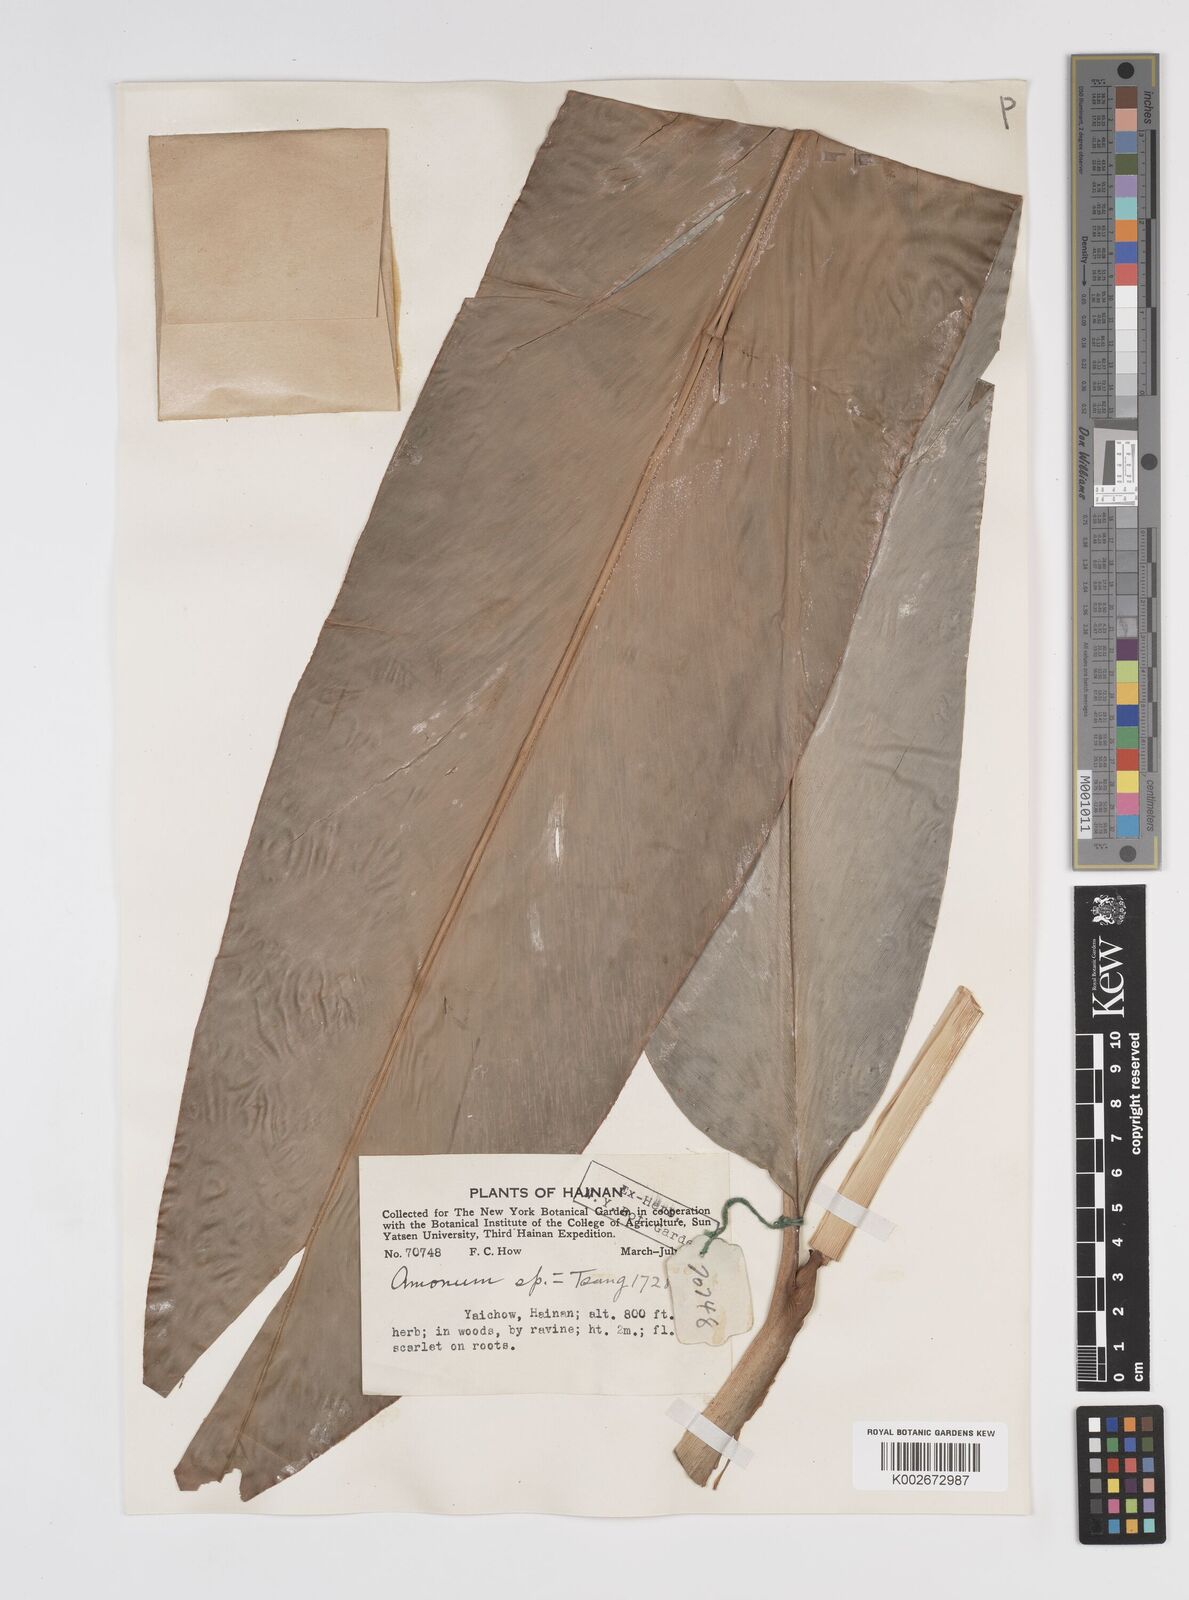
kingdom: Plantae
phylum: Tracheophyta
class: Liliopsida
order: Zingiberales
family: Zingiberaceae
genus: Amomum
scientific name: Amomum
